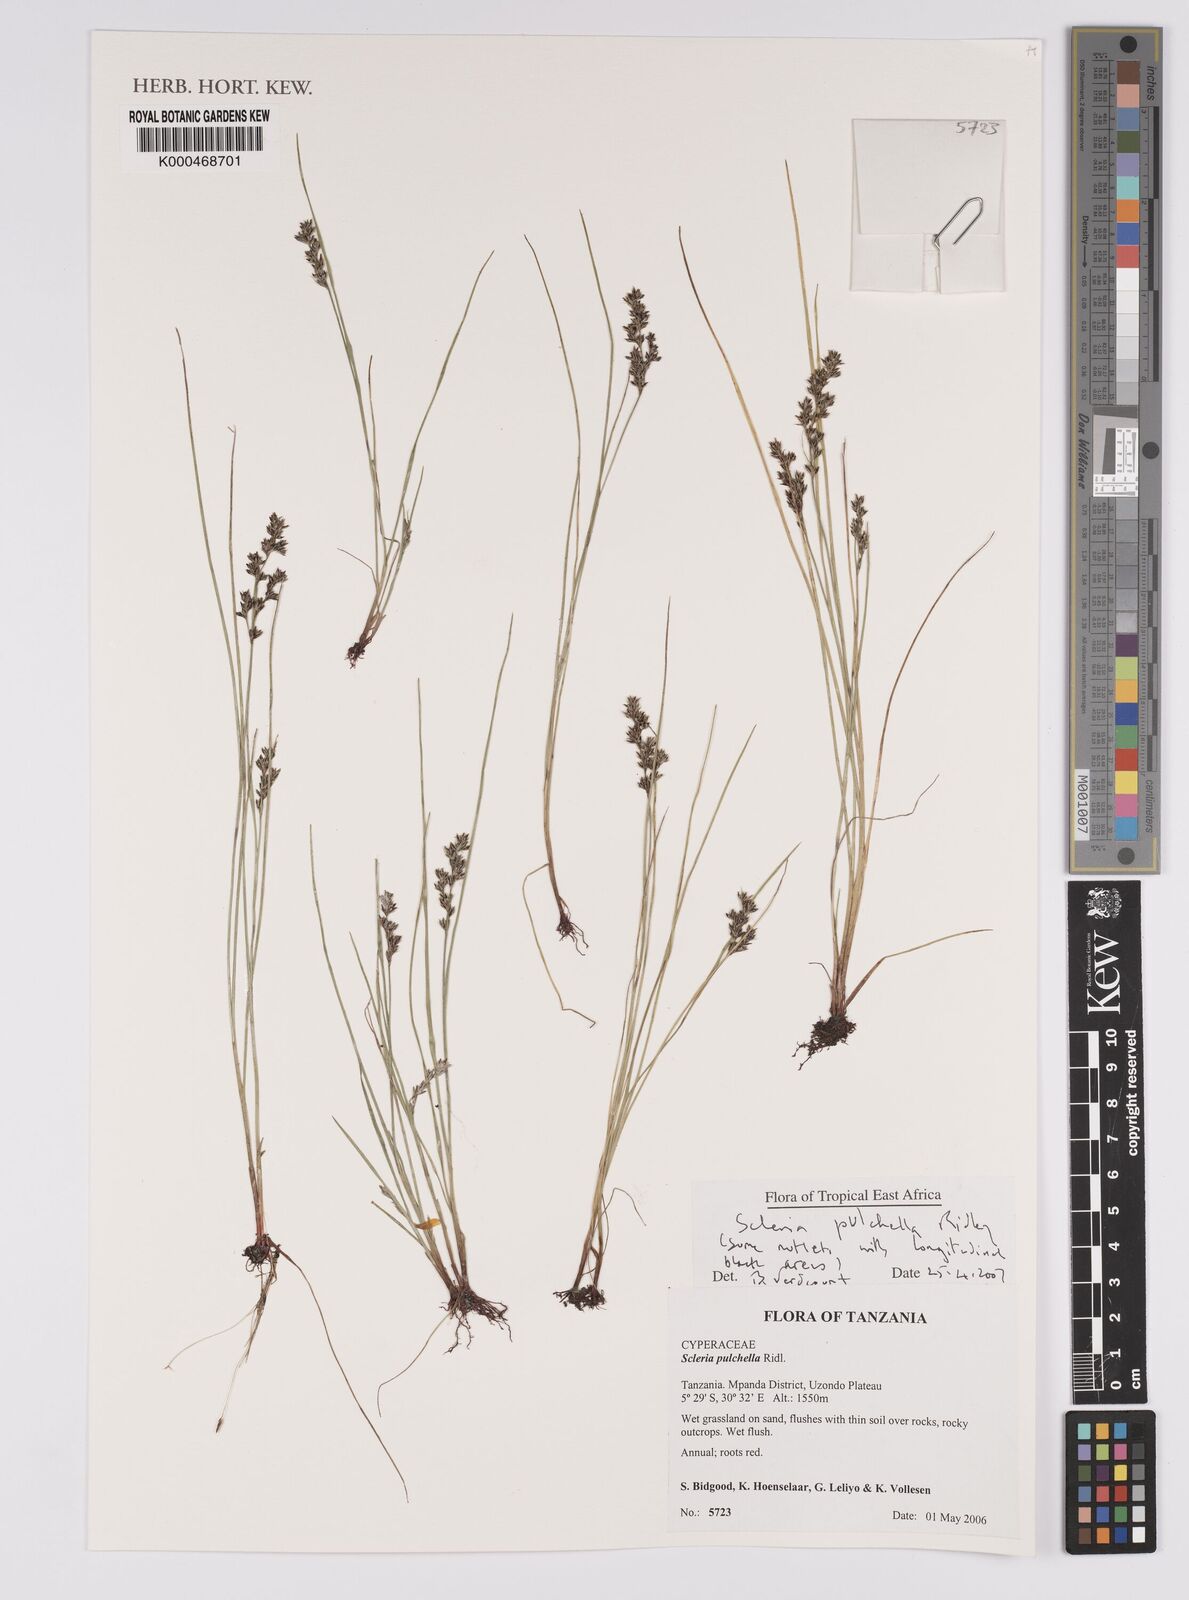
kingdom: Plantae
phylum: Tracheophyta
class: Liliopsida
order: Poales
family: Cyperaceae
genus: Scleria
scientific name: Scleria pulchella
